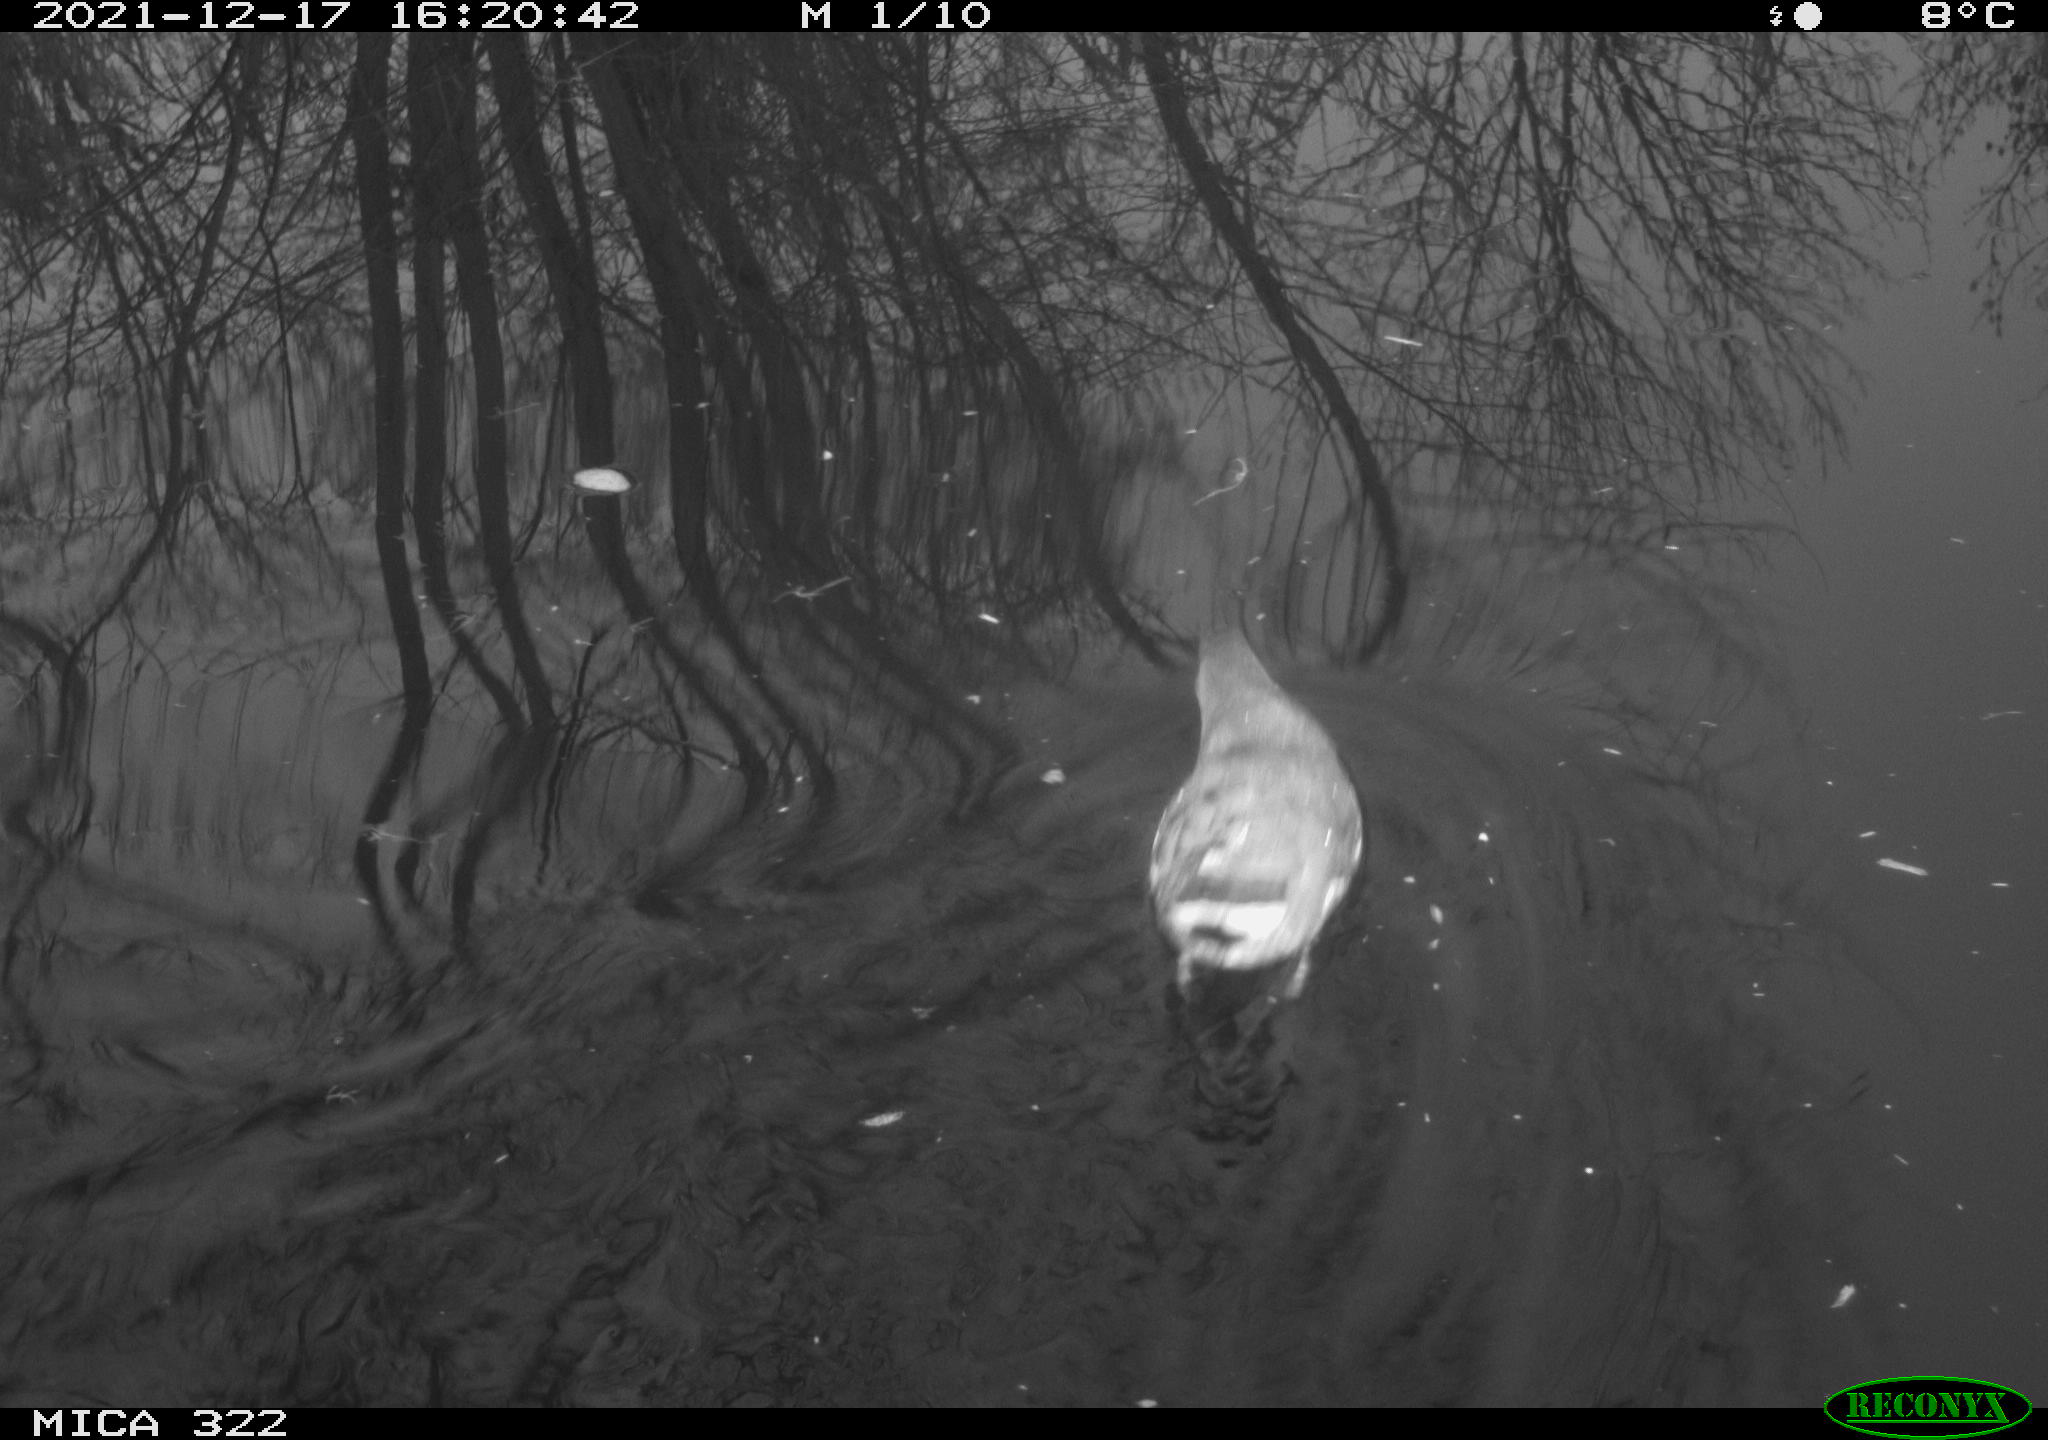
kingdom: Animalia
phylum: Chordata
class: Aves
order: Anseriformes
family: Anatidae
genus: Anas
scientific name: Anas
